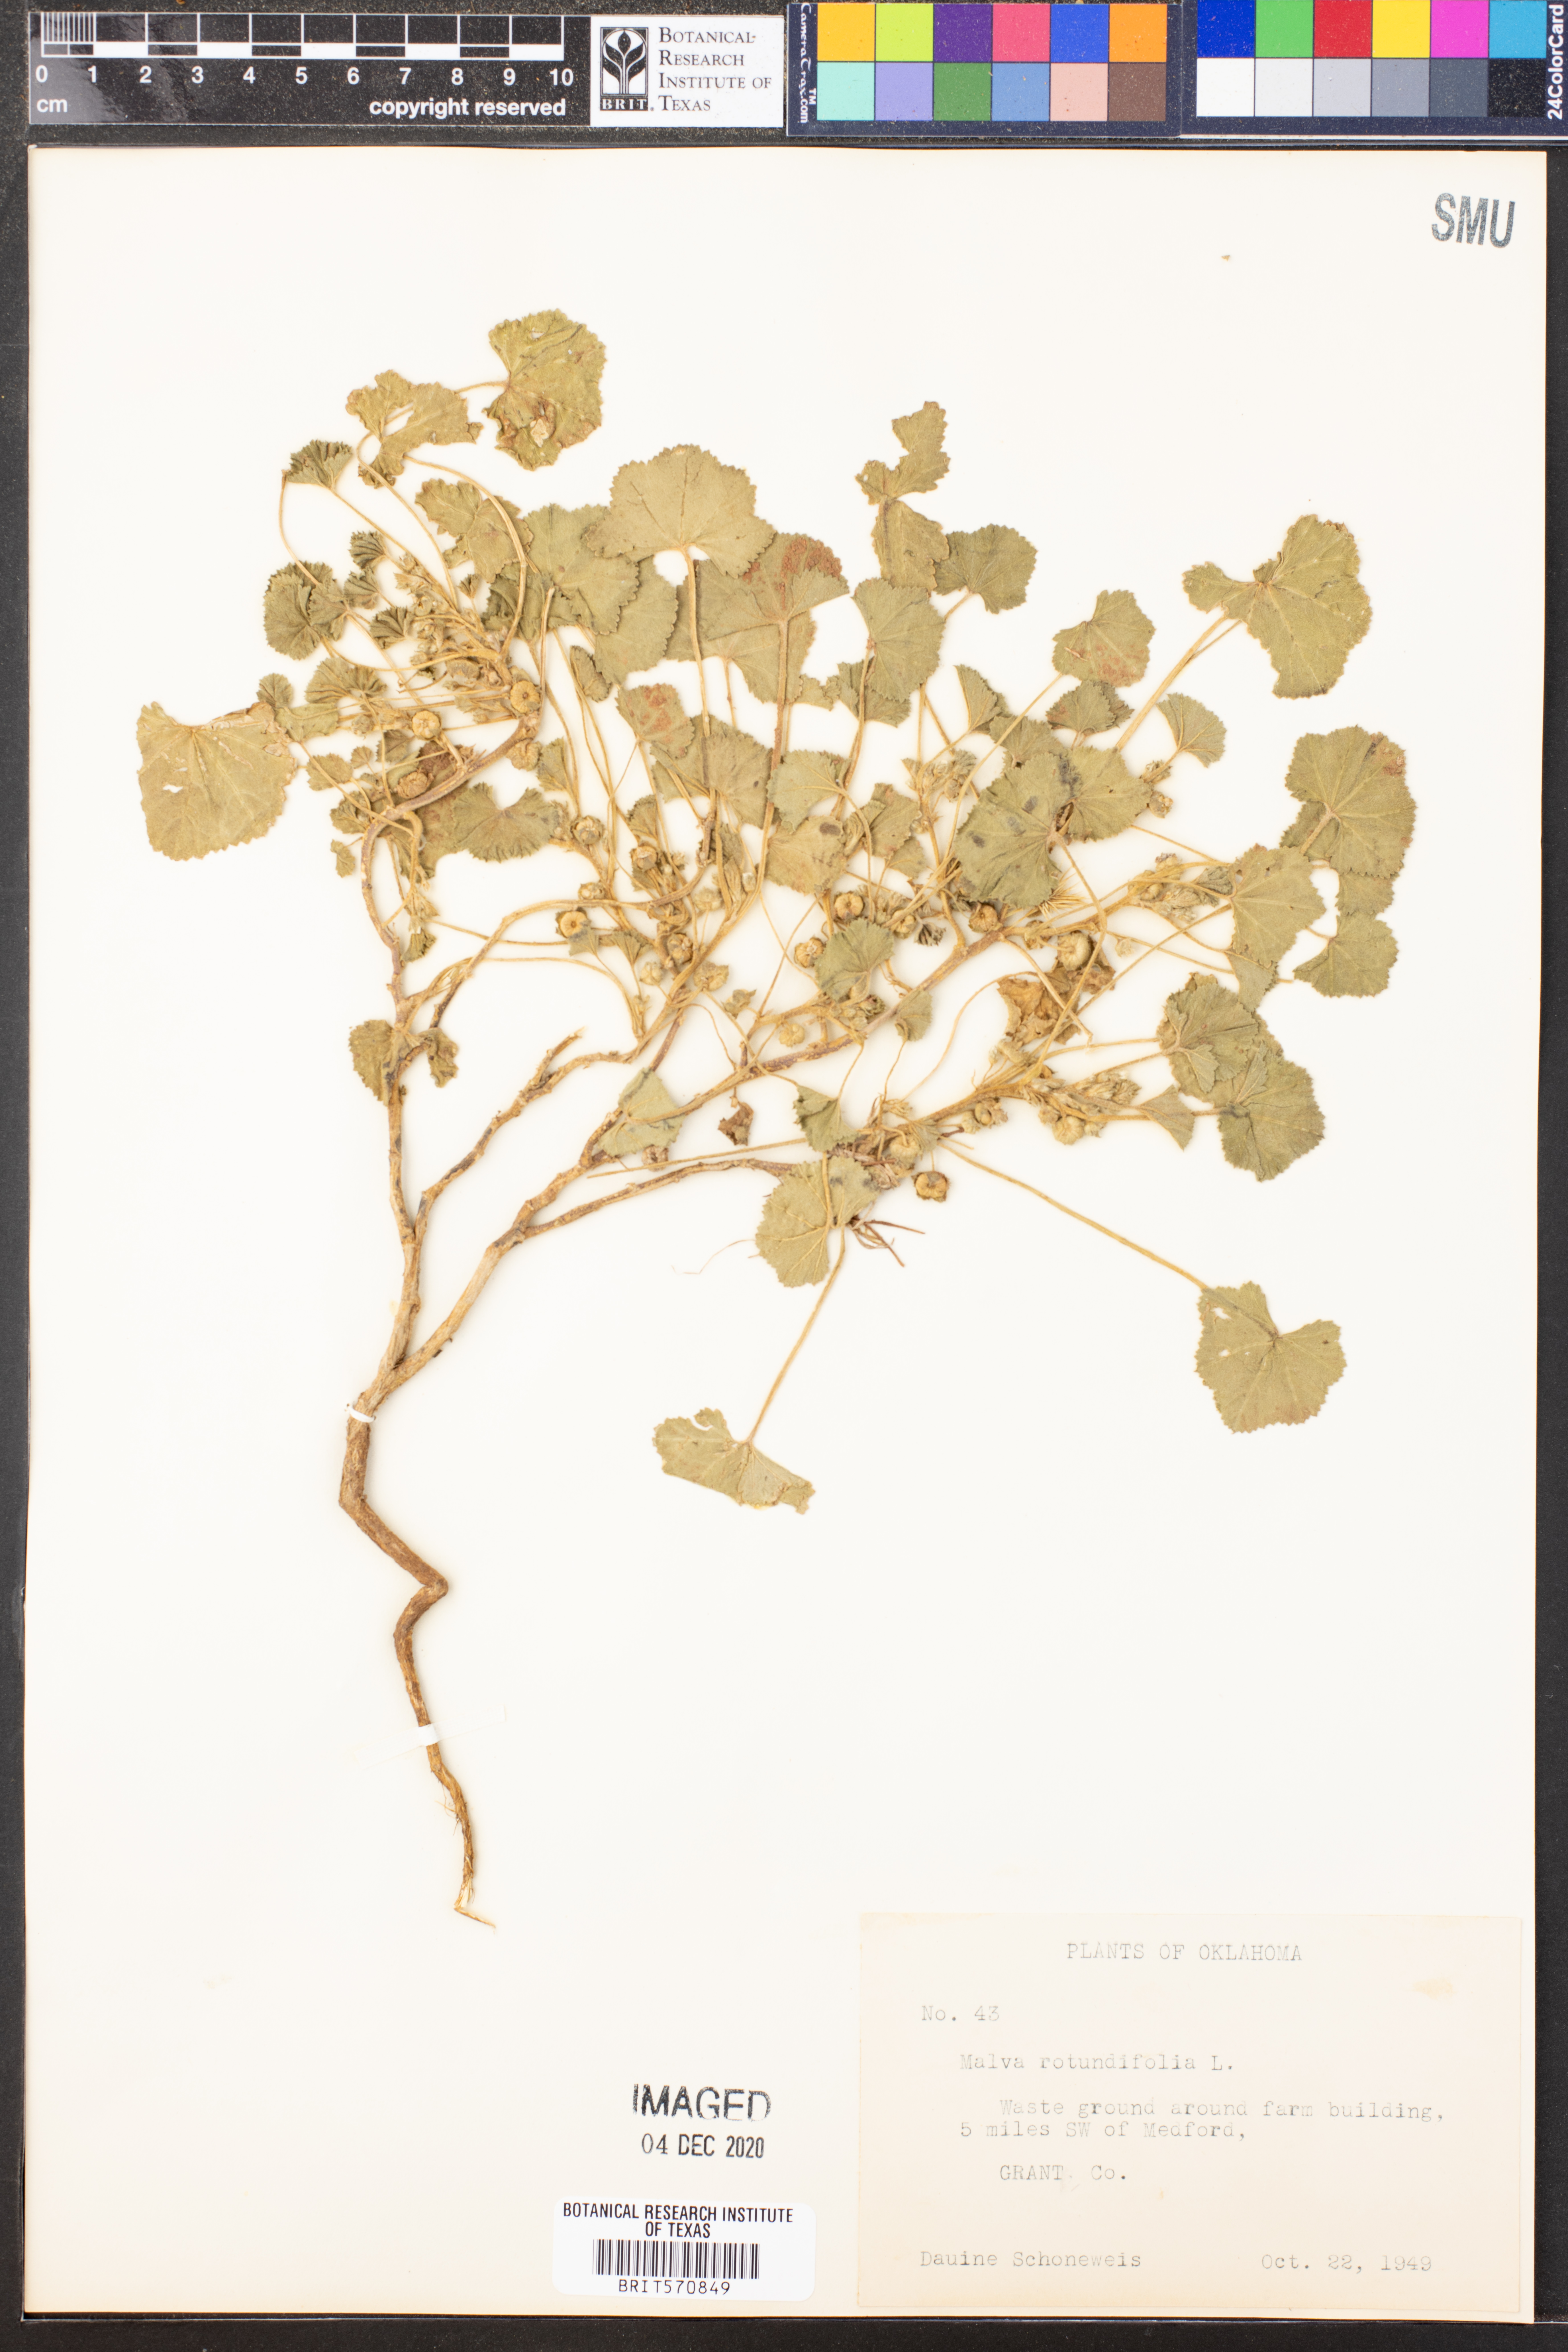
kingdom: Plantae
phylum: Tracheophyta
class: Magnoliopsida
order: Malvales
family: Malvaceae
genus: Malva
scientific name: Malva pusilla
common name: Small mallow
